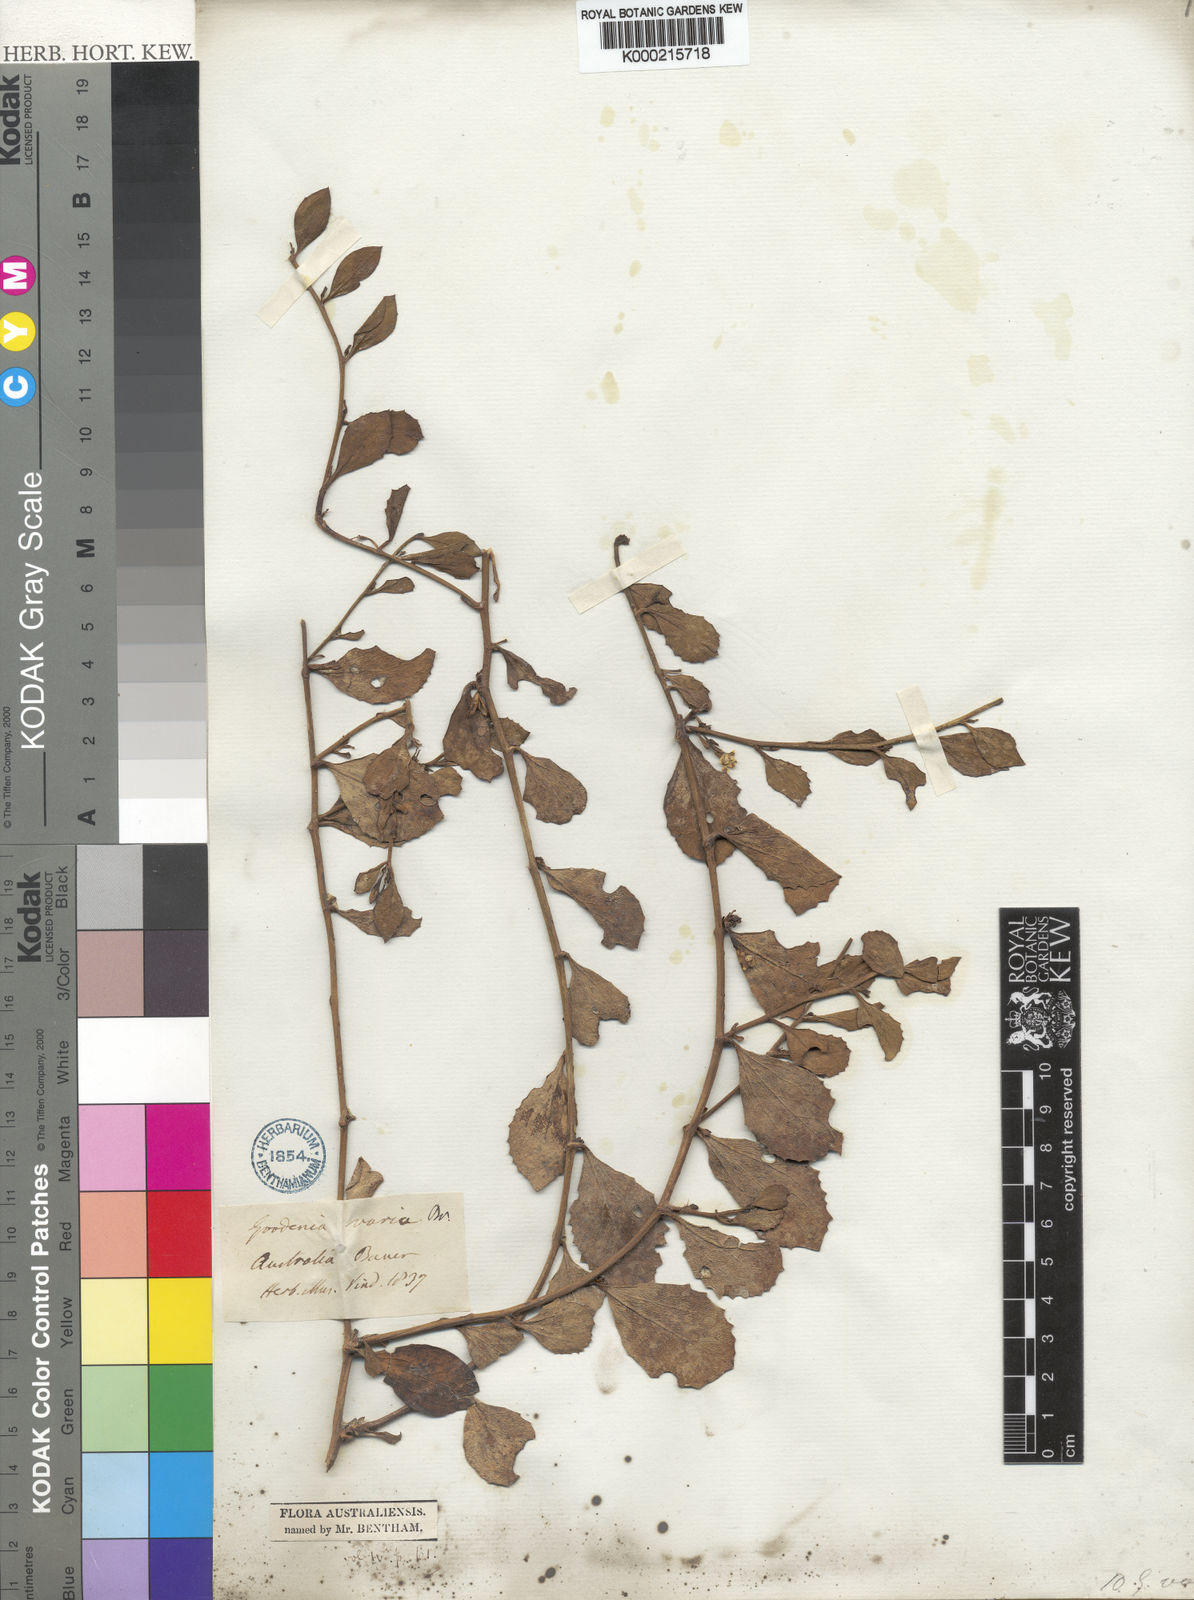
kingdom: Plantae
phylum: Tracheophyta
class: Magnoliopsida
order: Asterales
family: Goodeniaceae
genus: Goodenia
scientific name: Goodenia varia
